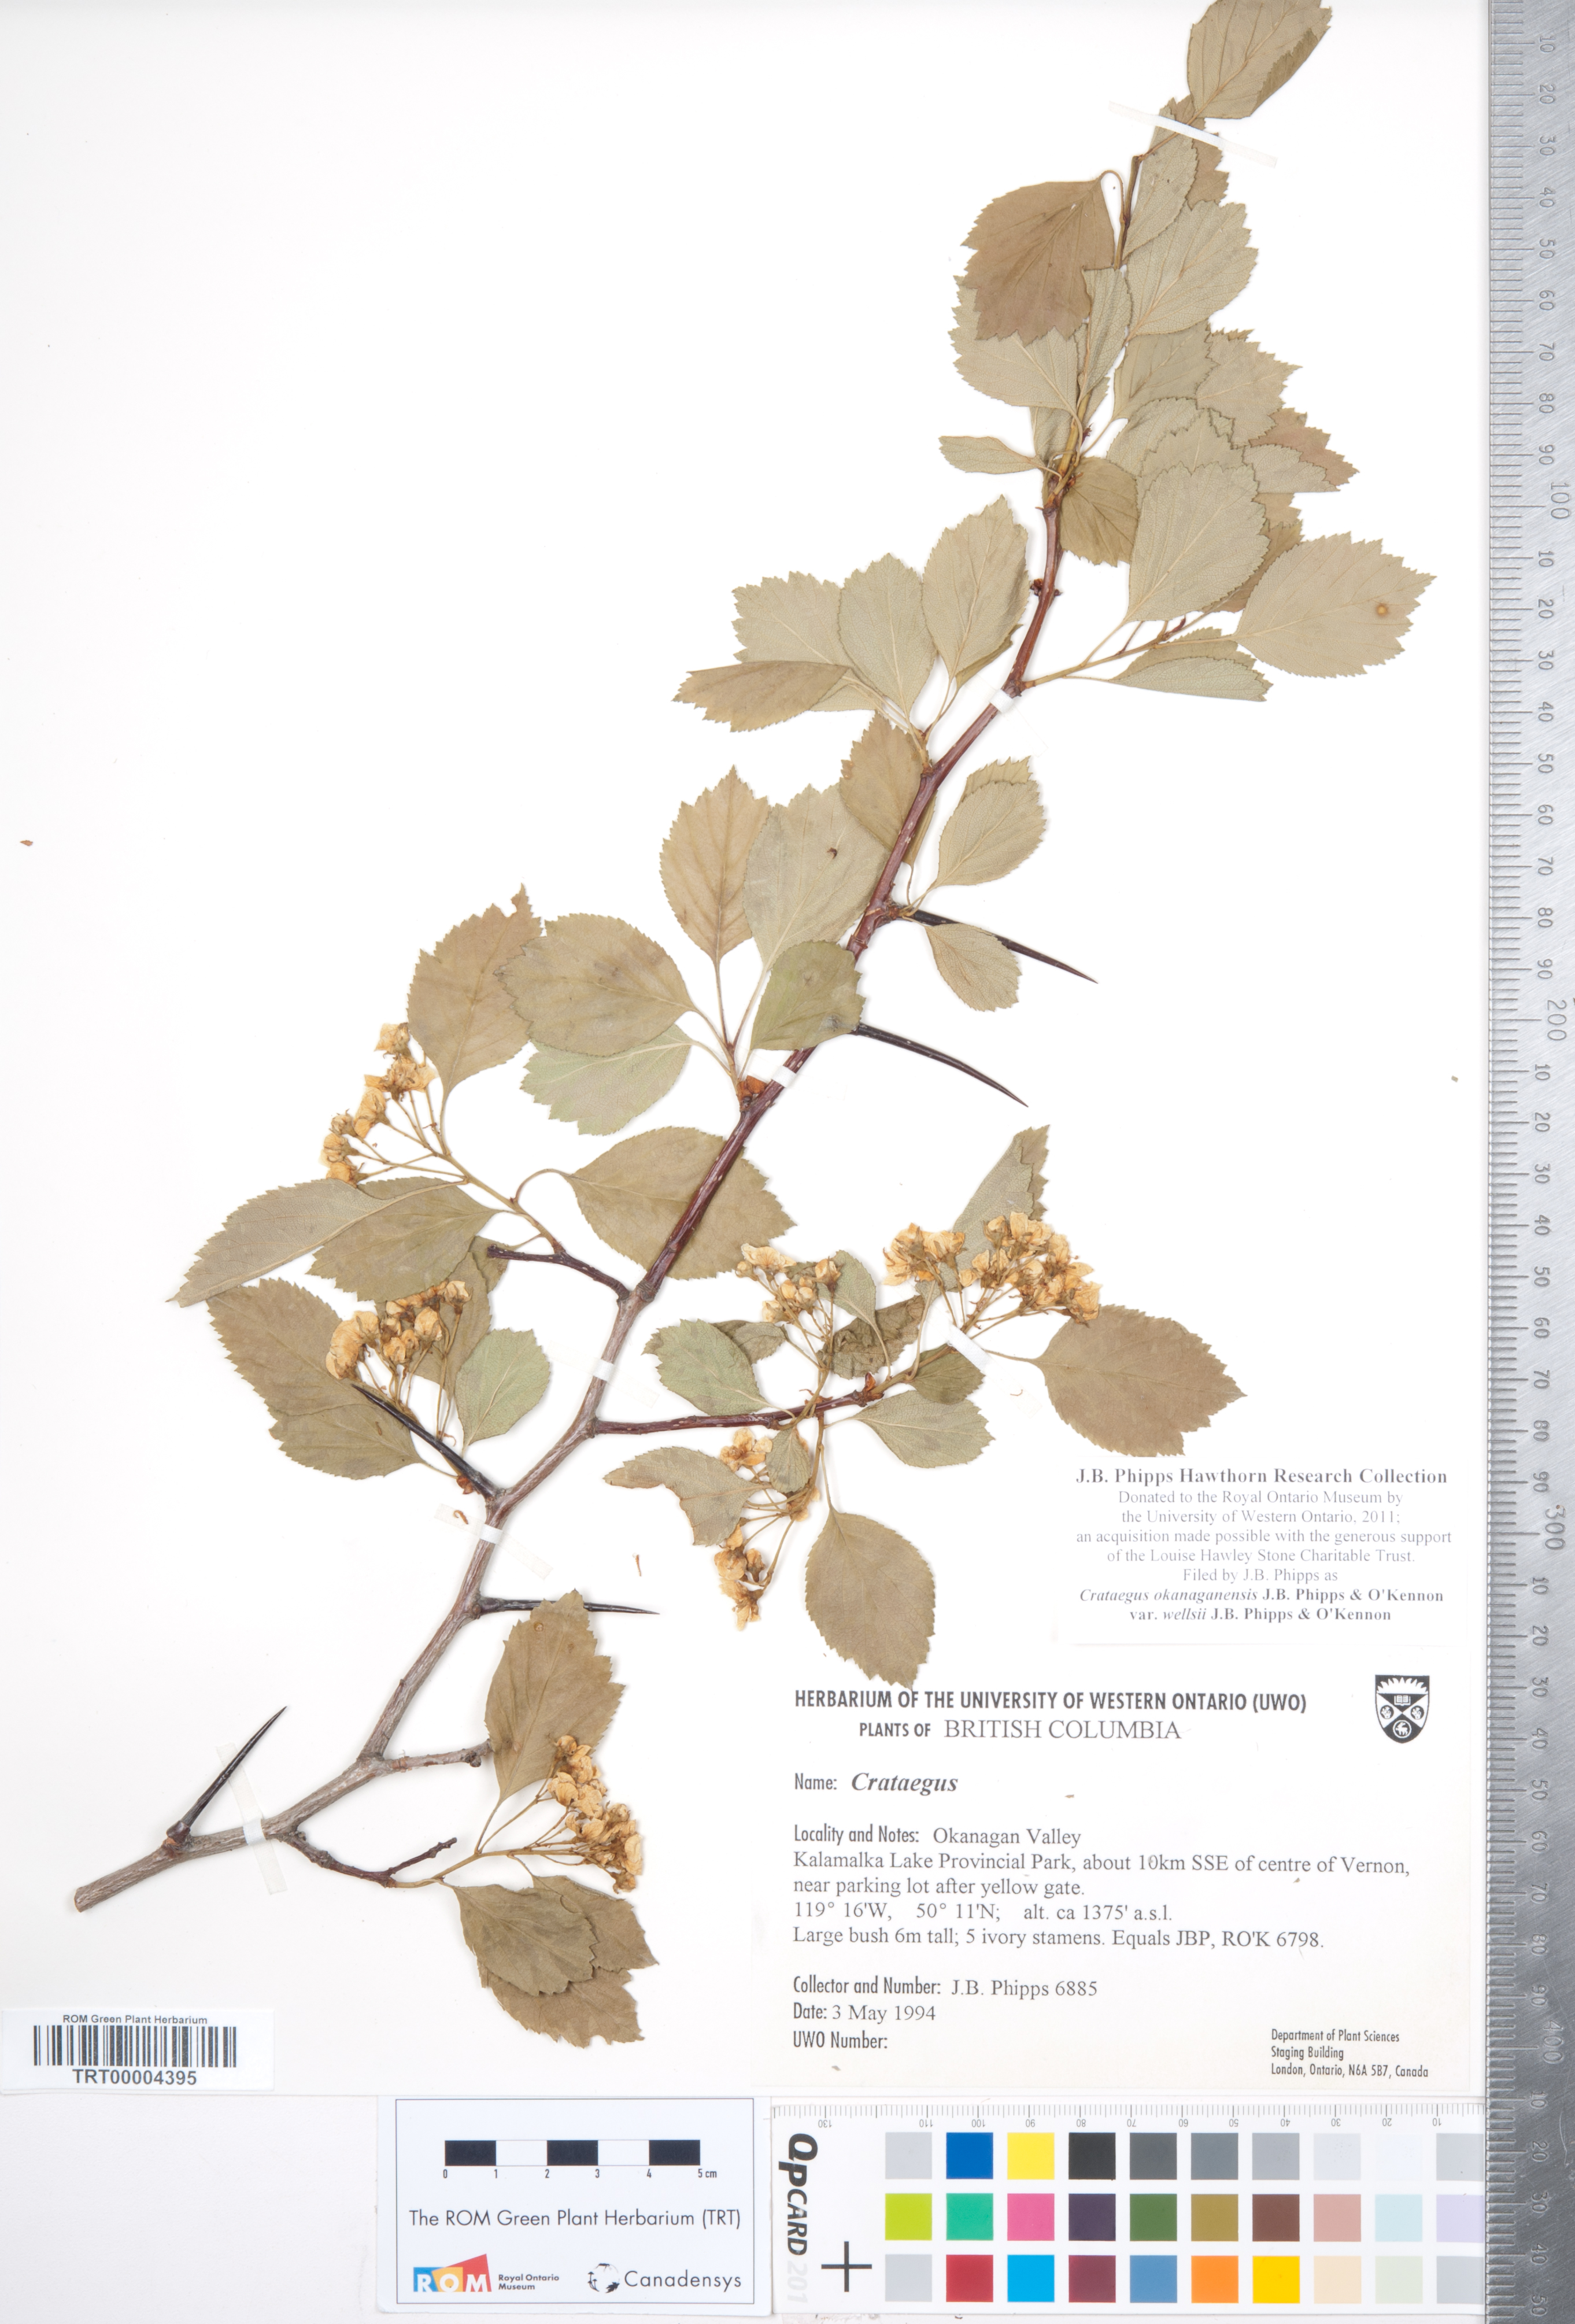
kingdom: Plantae
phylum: Tracheophyta
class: Magnoliopsida
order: Rosales
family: Rosaceae
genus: Crataegus
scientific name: Crataegus okanaganensis
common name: Okanagan valley hawthorn
